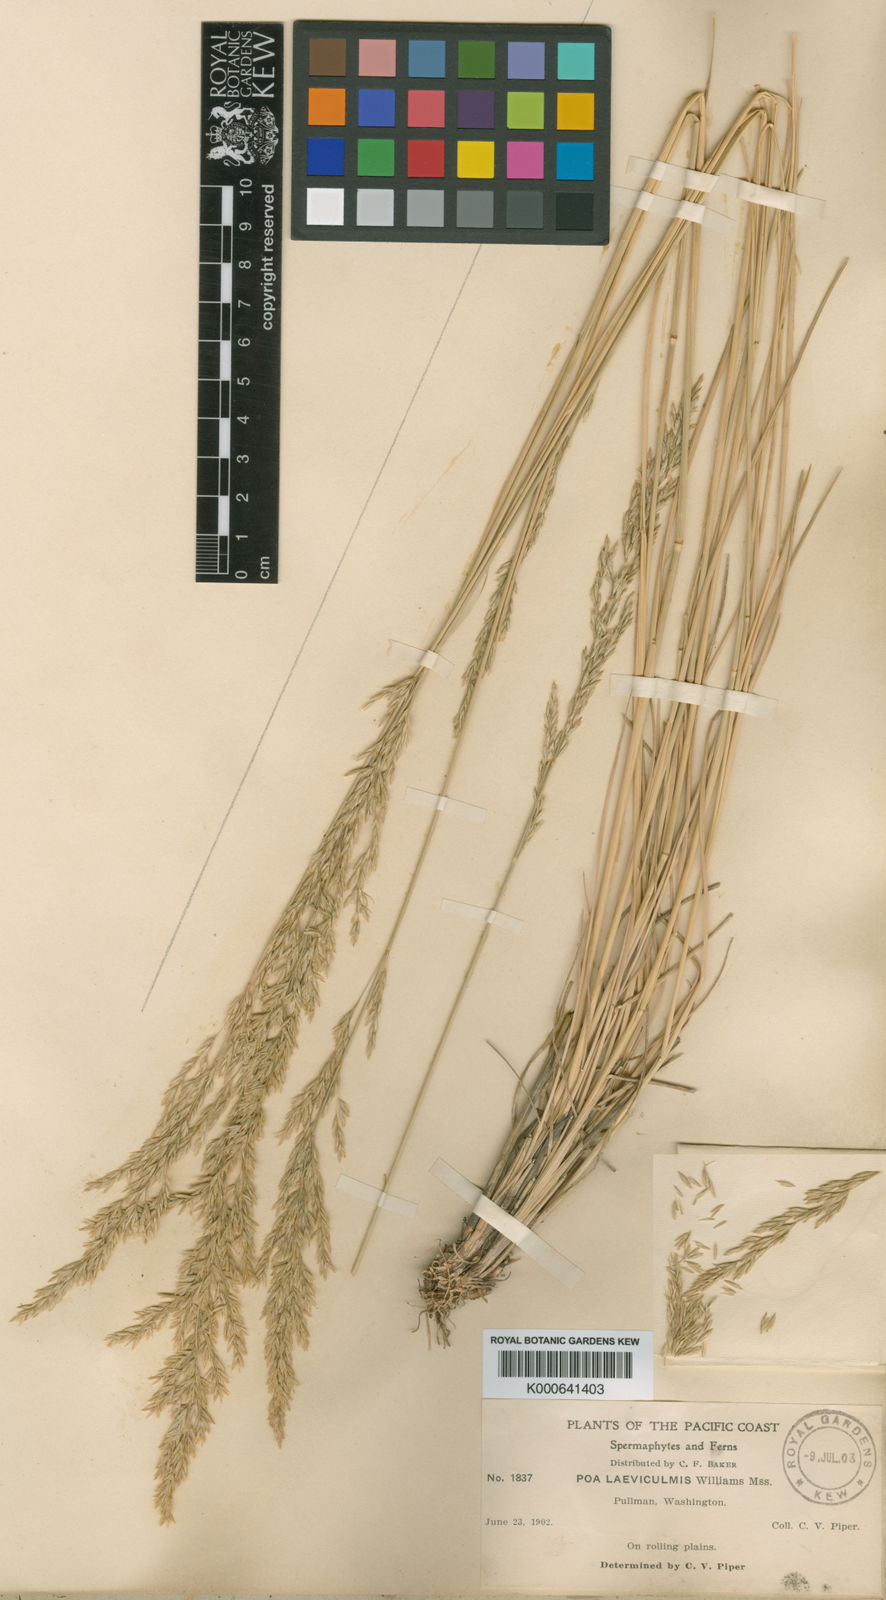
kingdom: Plantae
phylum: Tracheophyta
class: Liliopsida
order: Poales
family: Poaceae
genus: Poa
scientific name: Poa secunda
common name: Sandberg bluegrass
